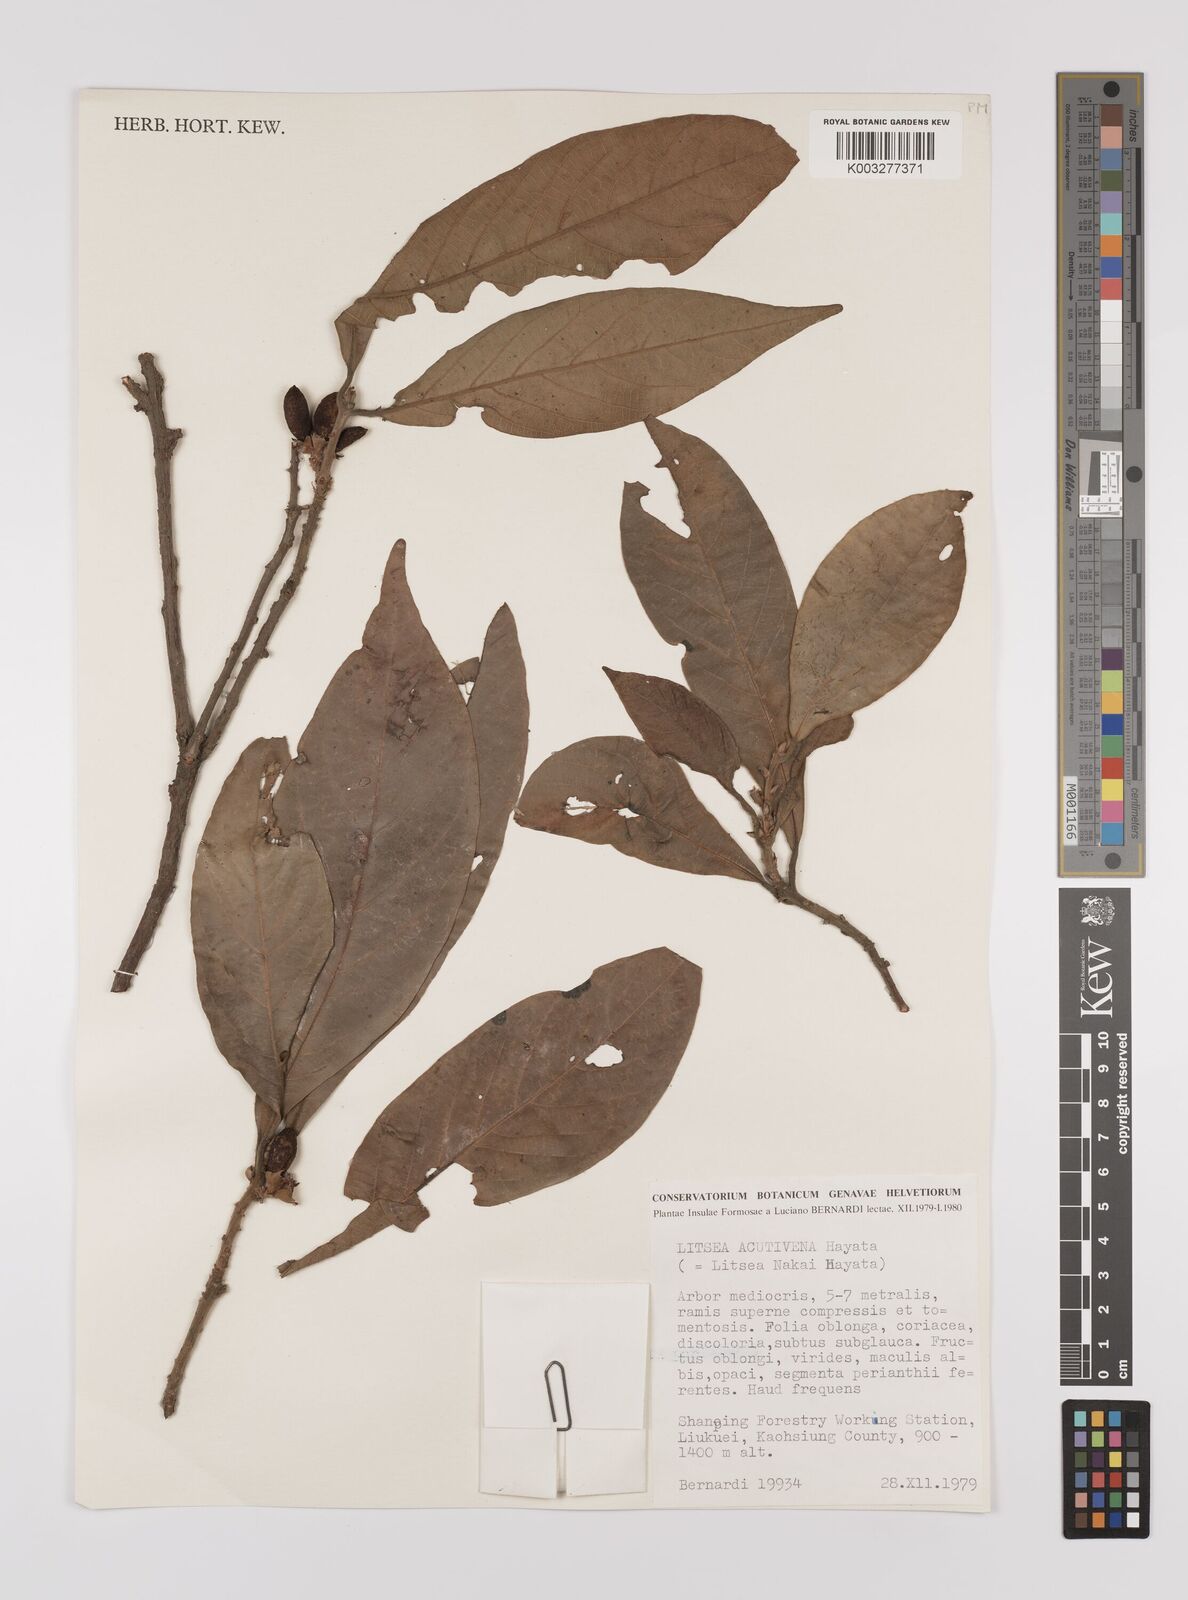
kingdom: Plantae
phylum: Tracheophyta
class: Magnoliopsida
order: Laurales
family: Lauraceae
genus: Litsea
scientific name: Litsea elongata
